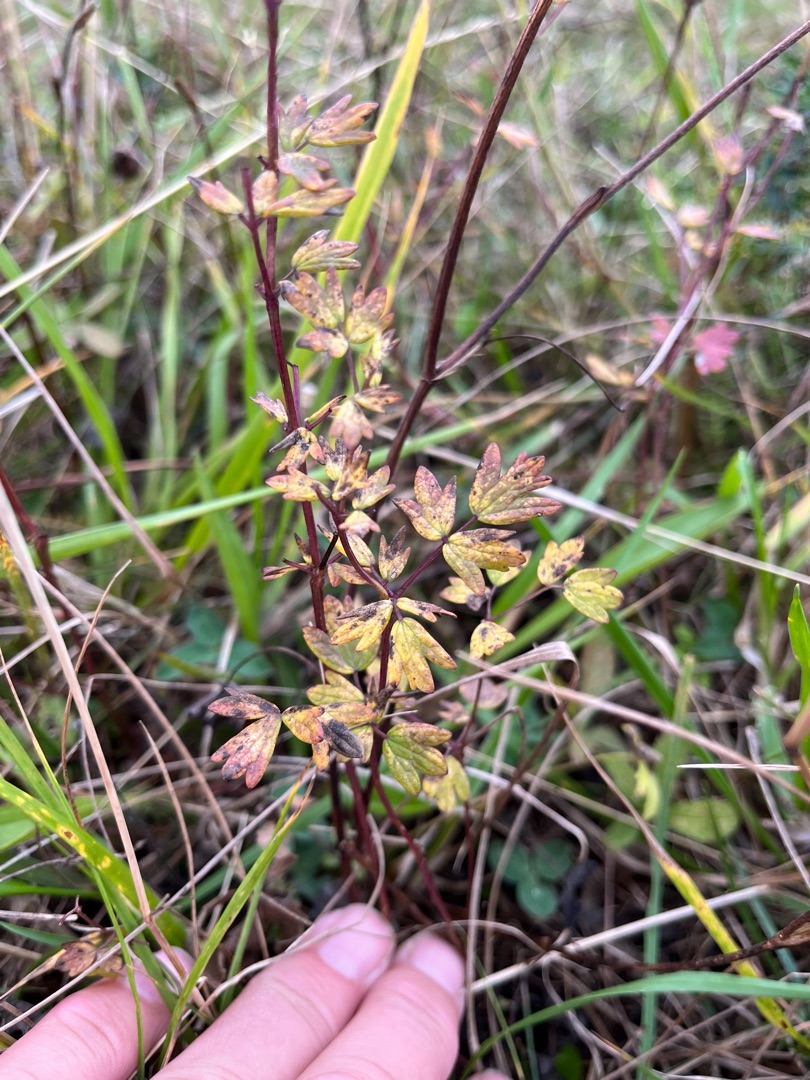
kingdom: Plantae
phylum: Tracheophyta
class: Magnoliopsida
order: Ranunculales
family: Ranunculaceae
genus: Thalictrum
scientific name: Thalictrum simplex
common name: Rank frøstjerne
